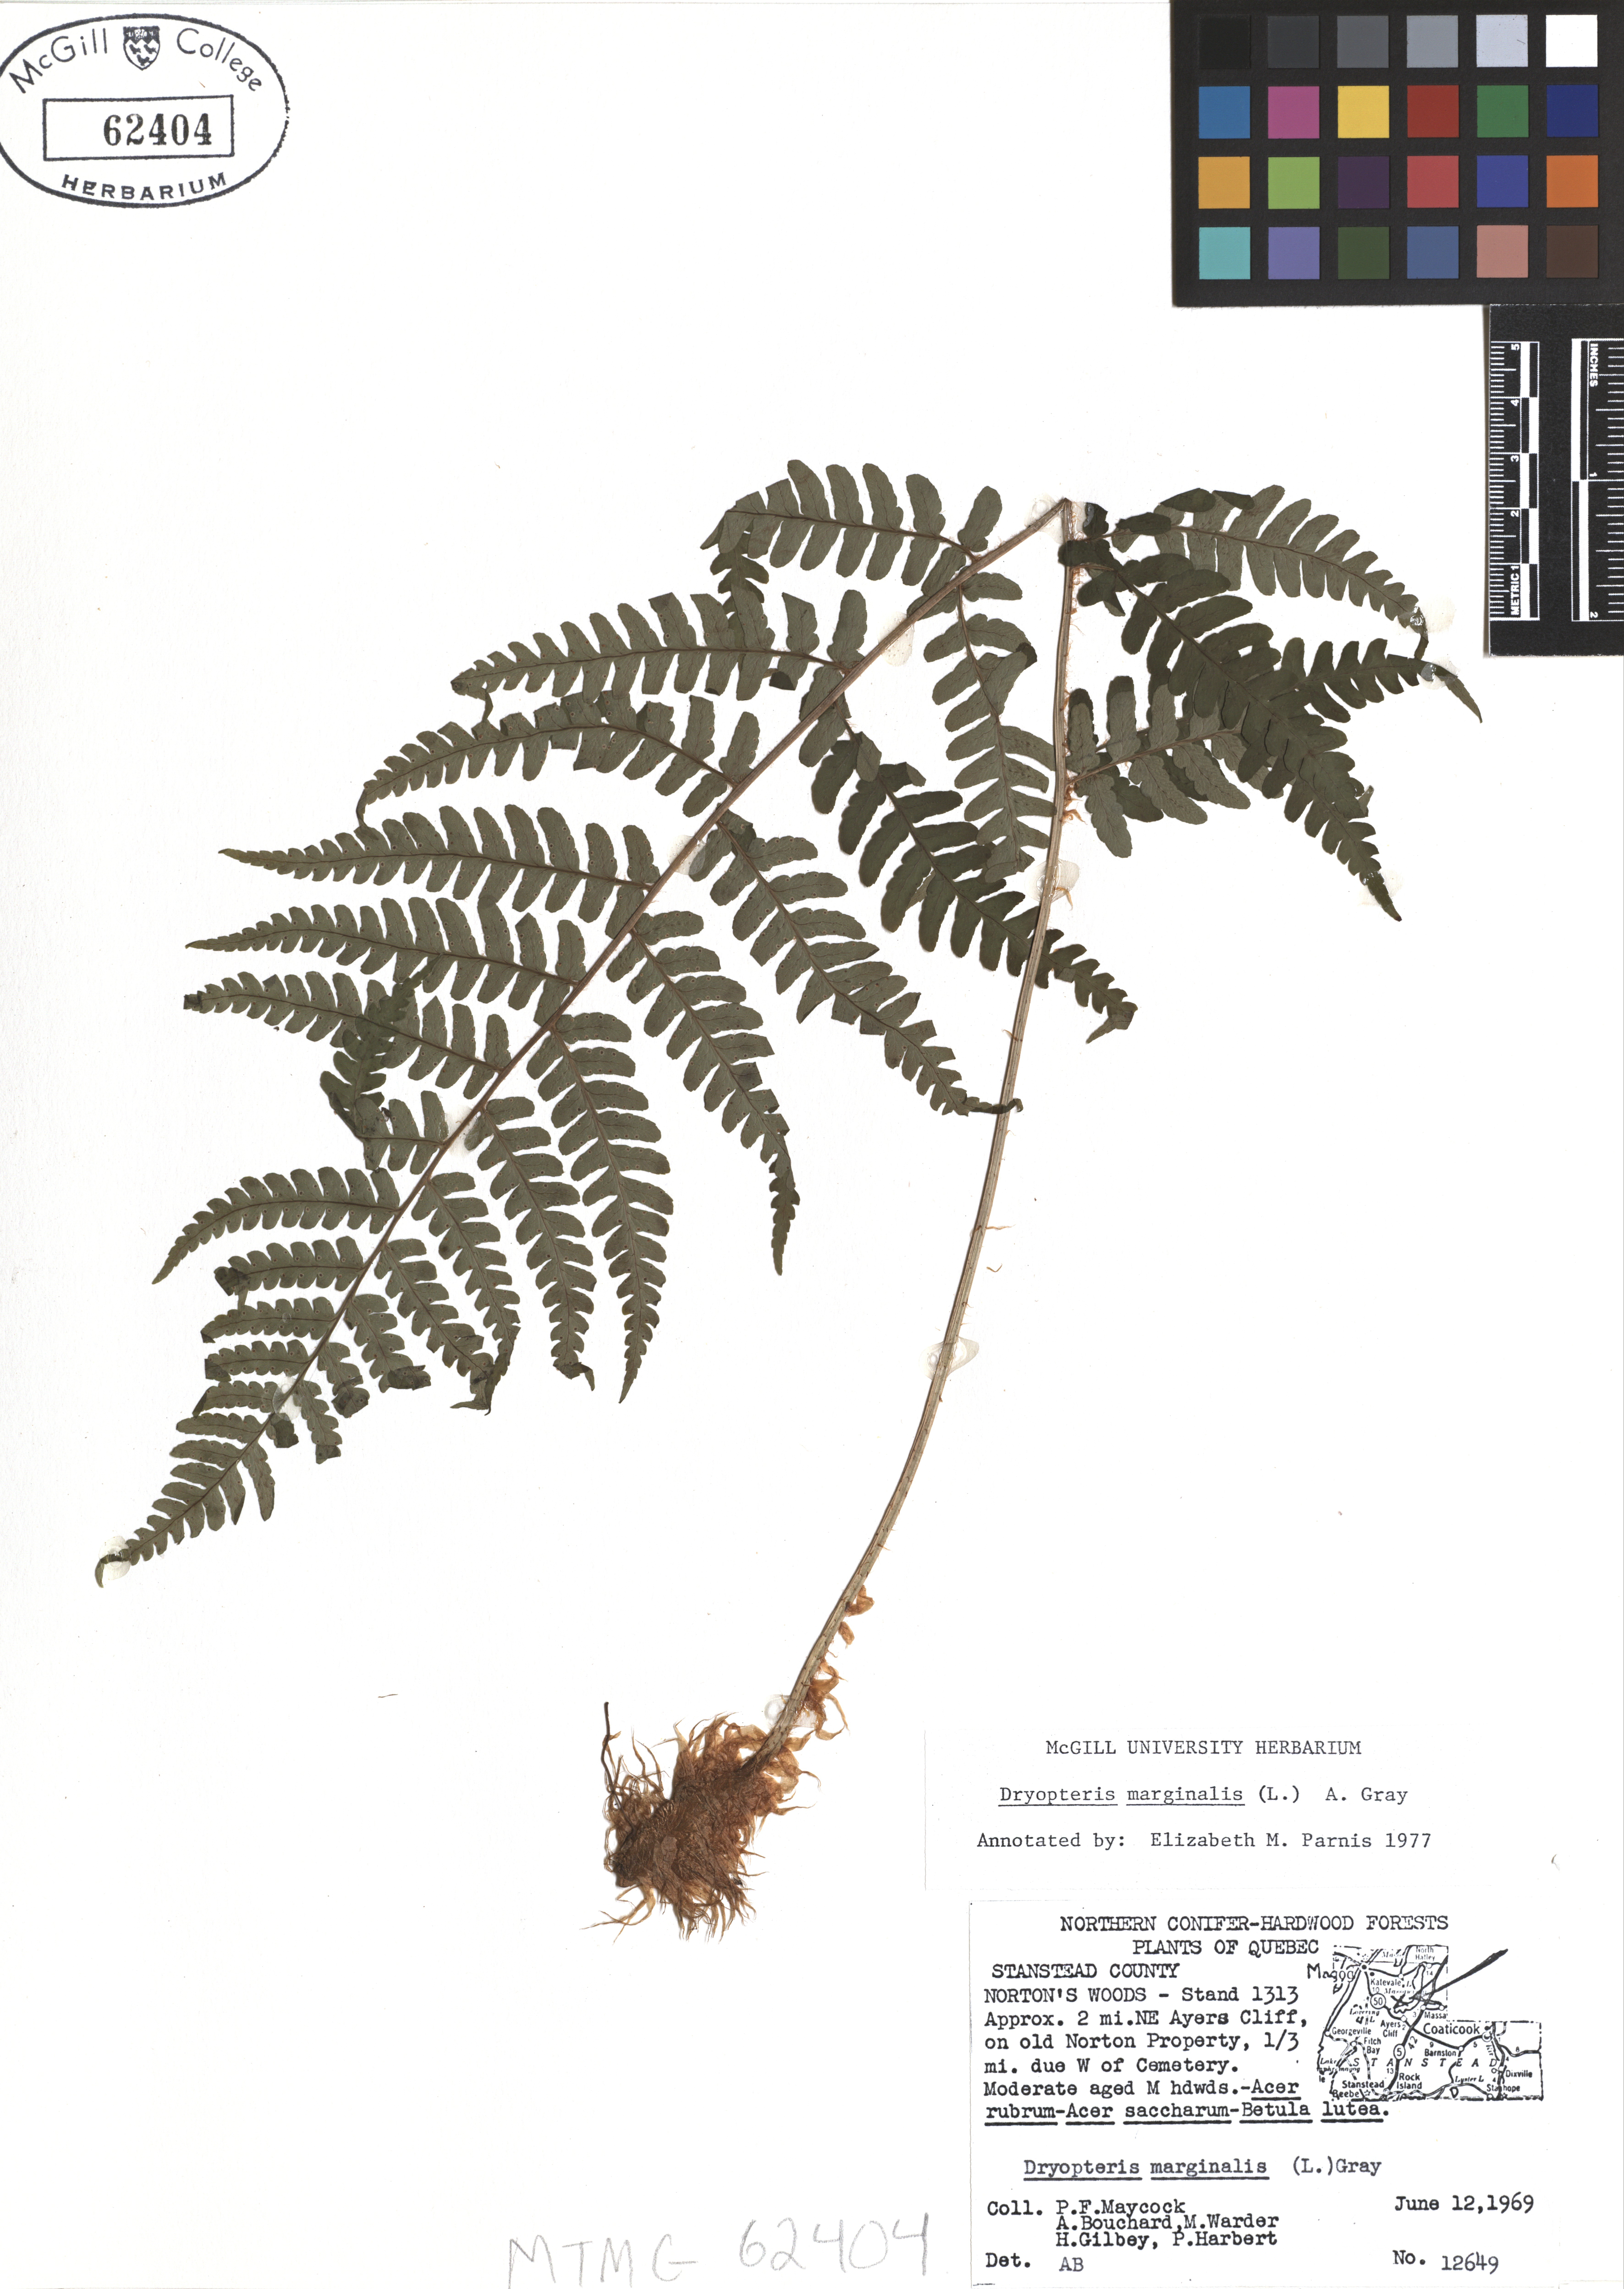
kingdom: Plantae
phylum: Tracheophyta
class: Polypodiopsida
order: Polypodiales
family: Dryopteridaceae
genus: Dryopteris
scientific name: Dryopteris marginalis
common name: Marginal wood fern
